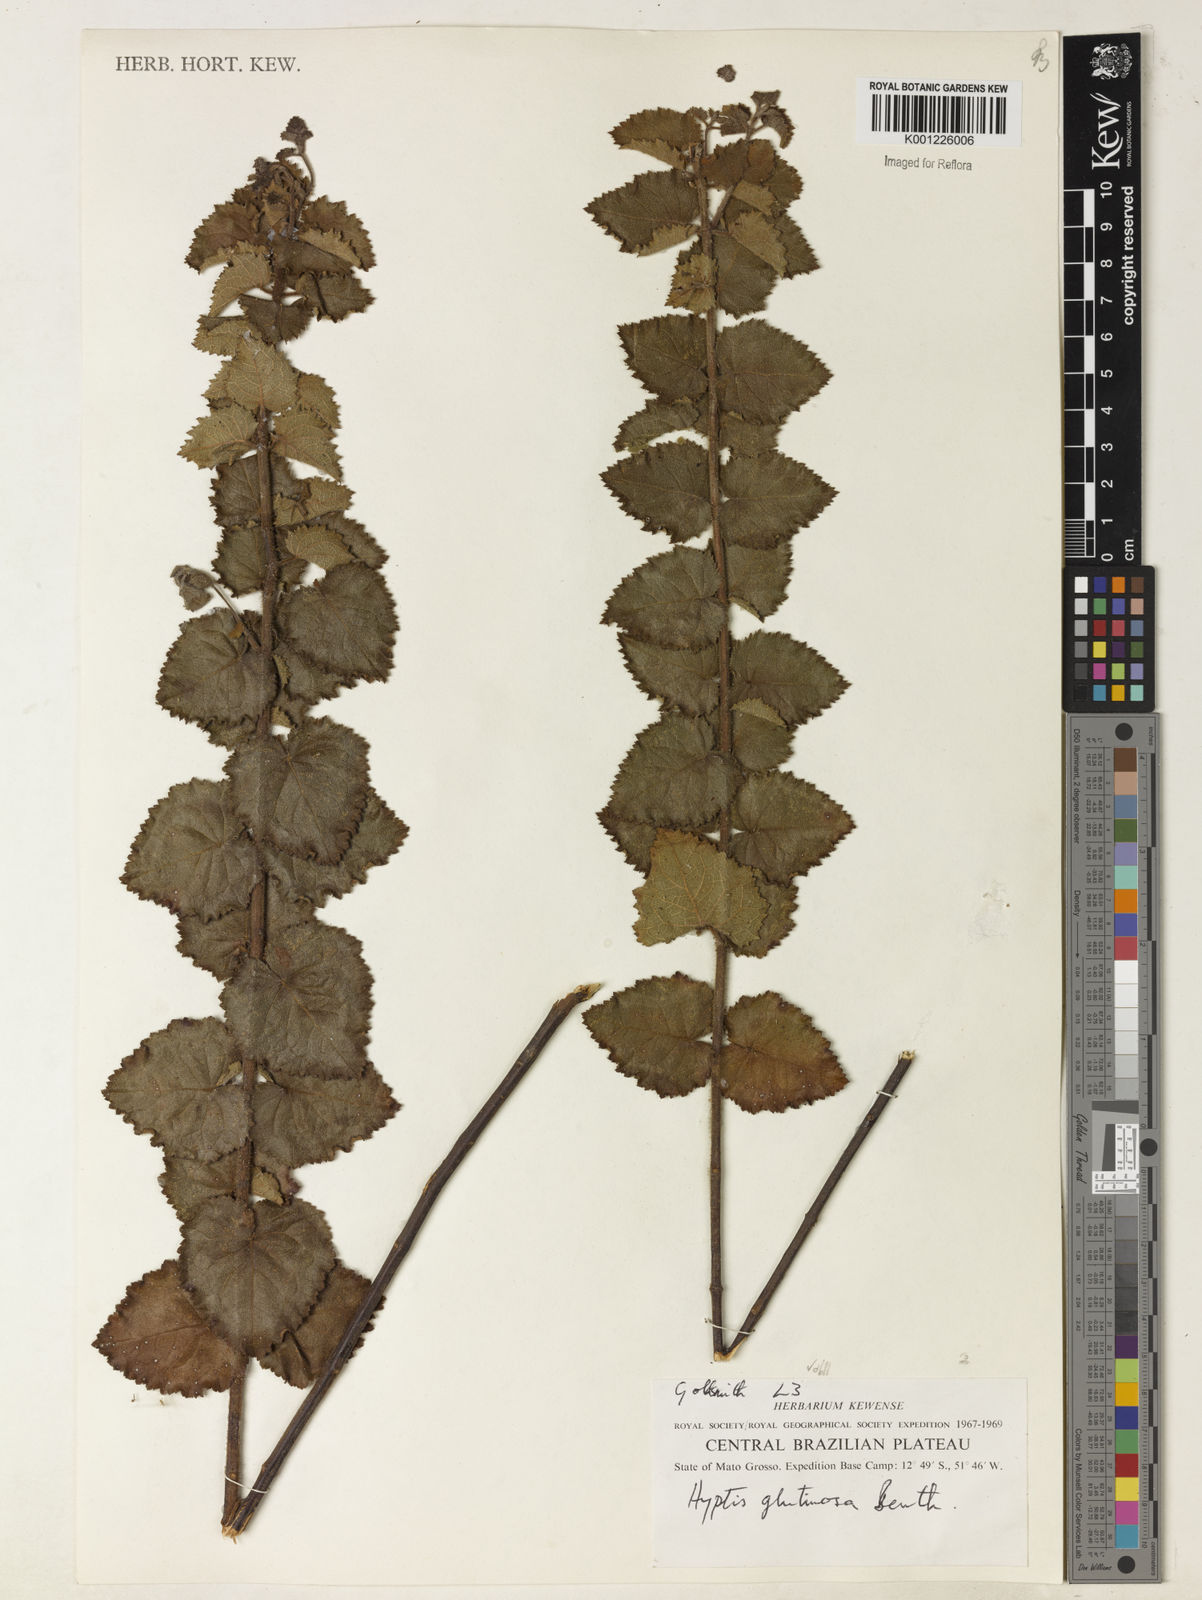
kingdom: Plantae
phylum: Tracheophyta
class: Magnoliopsida
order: Lamiales
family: Lamiaceae
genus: Hyptidendron
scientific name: Hyptidendron glutinosum
